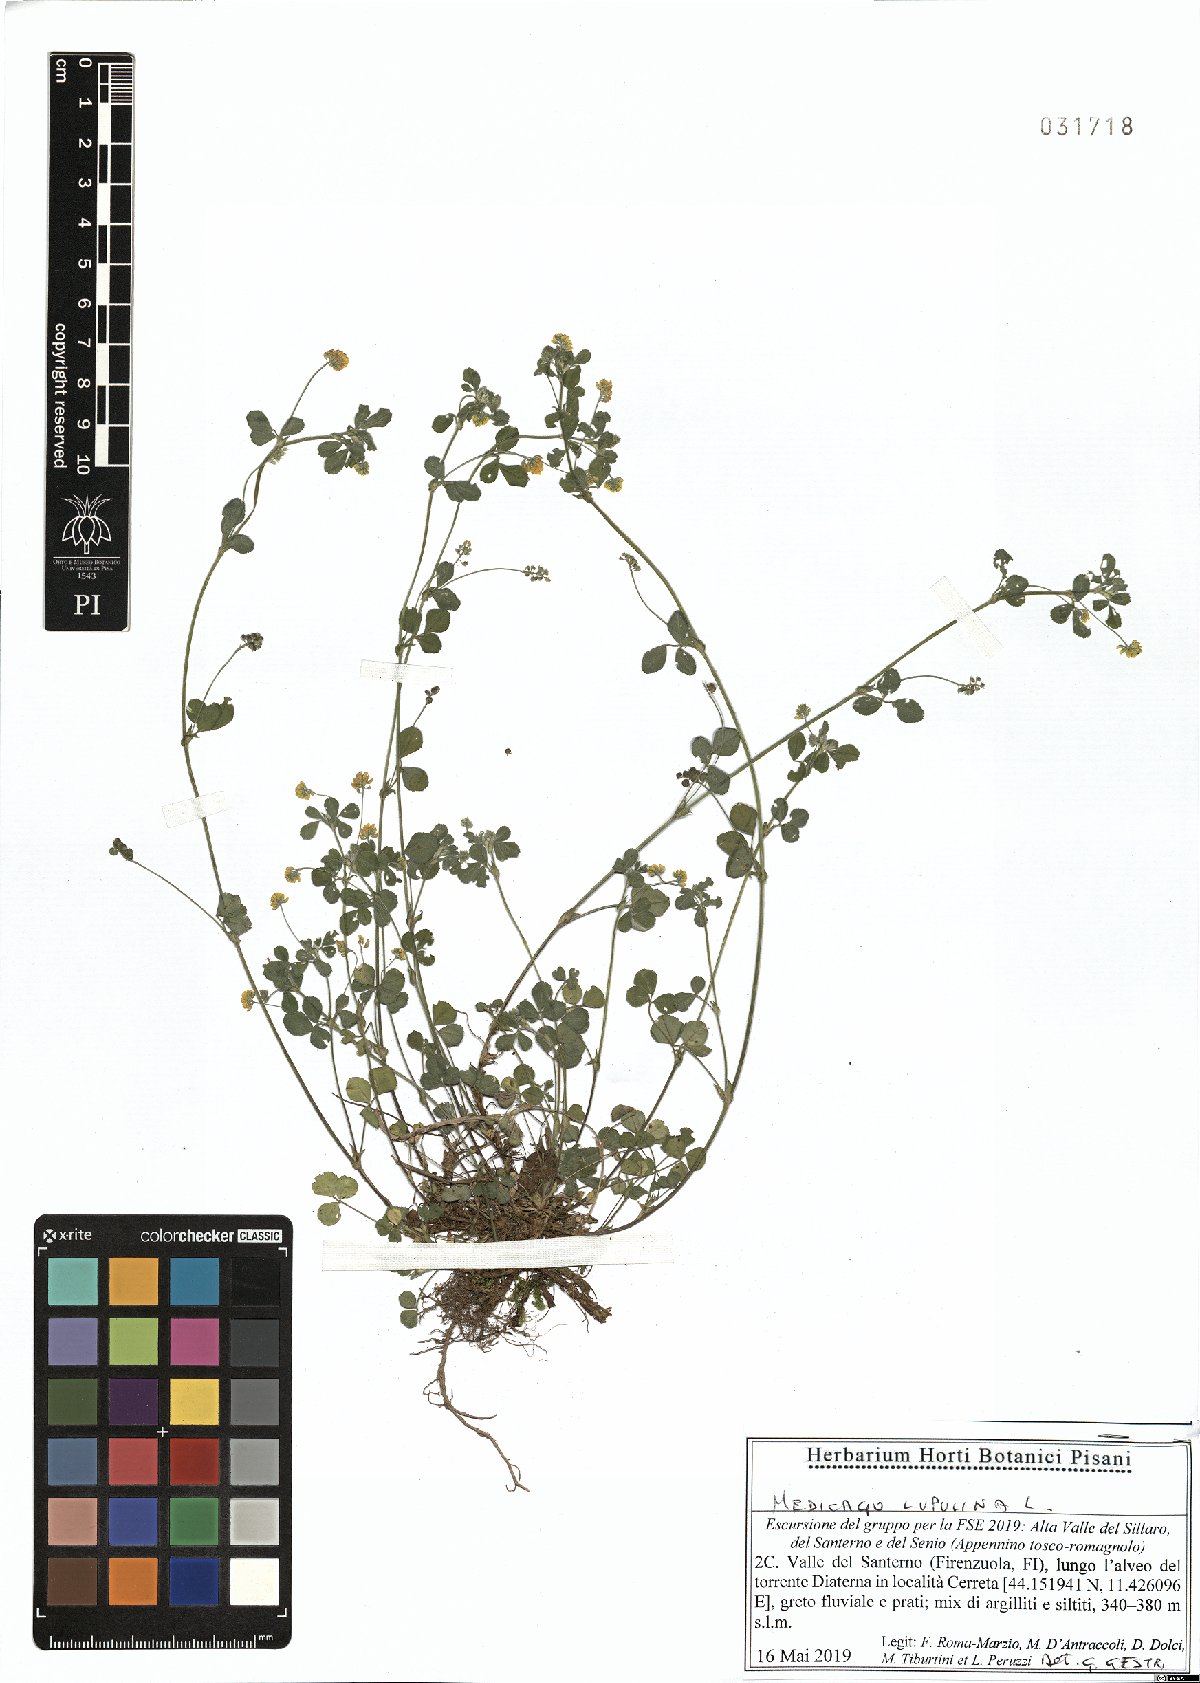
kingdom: Plantae
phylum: Tracheophyta
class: Magnoliopsida
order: Fabales
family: Fabaceae
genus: Medicago
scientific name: Medicago lupulina
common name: Black medick
